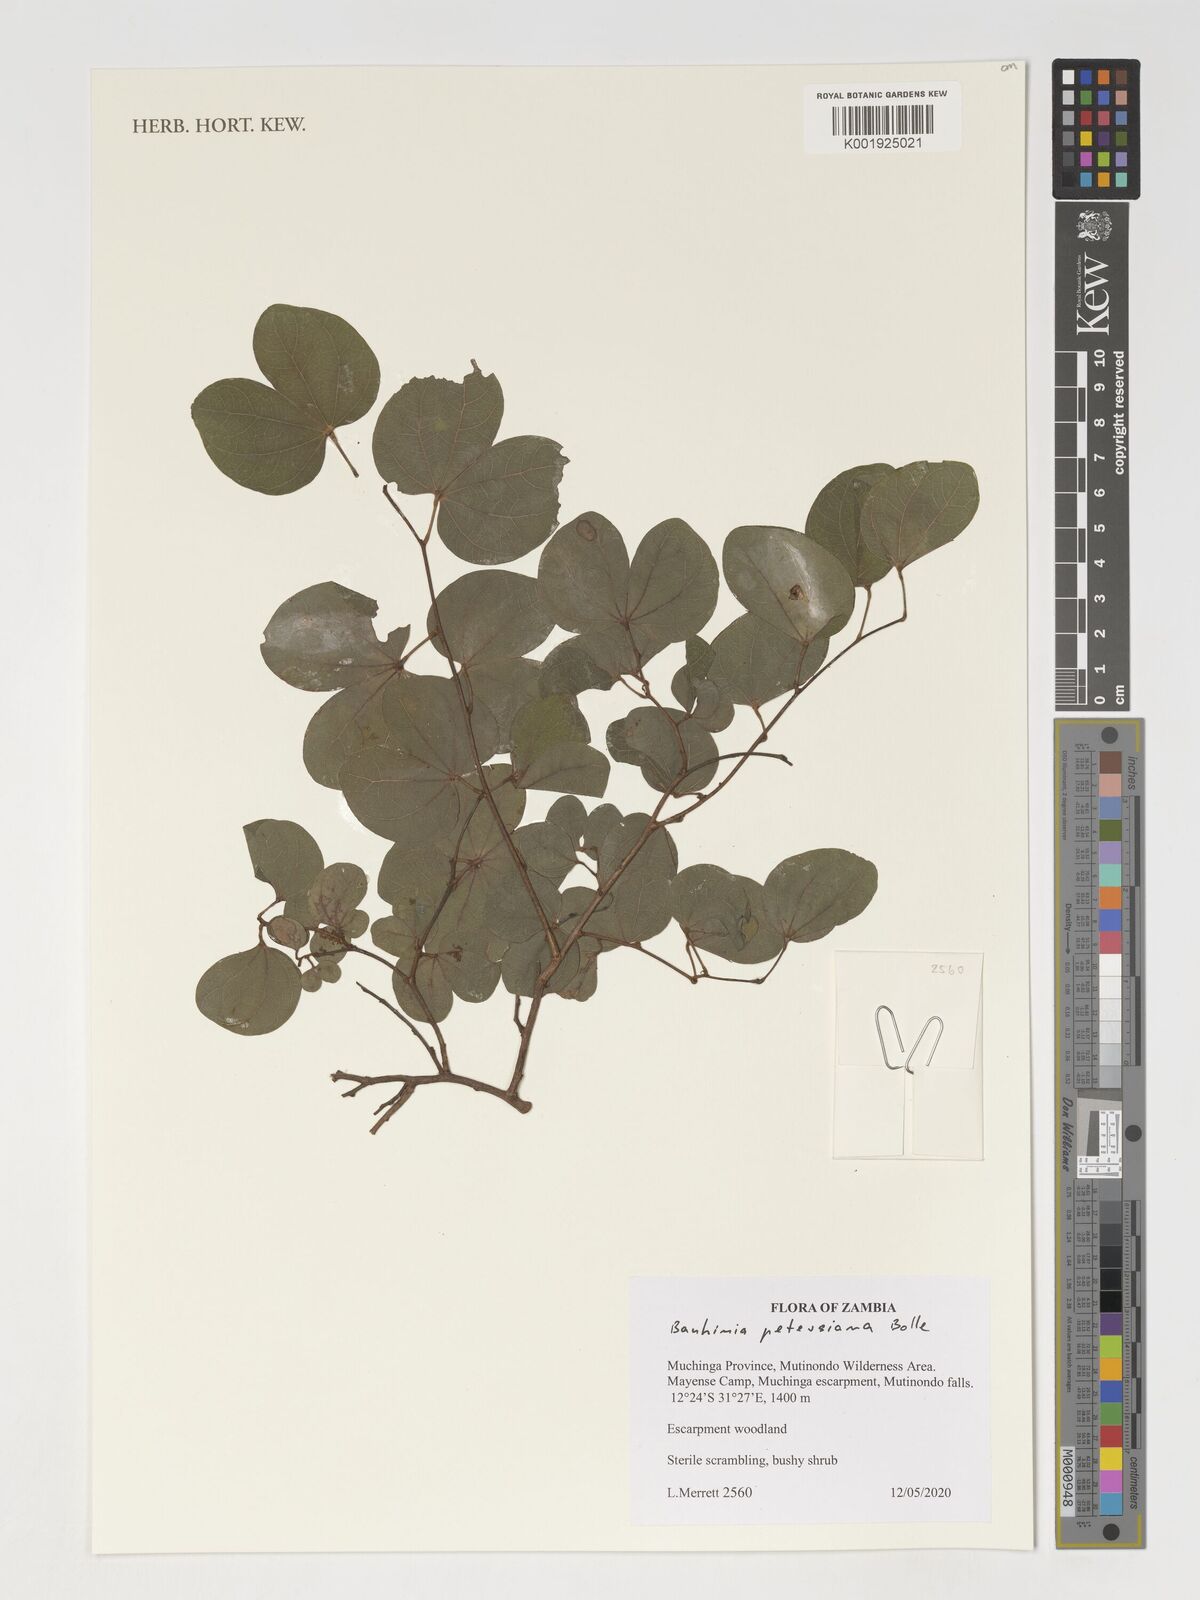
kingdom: Plantae
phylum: Tracheophyta
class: Magnoliopsida
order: Fabales
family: Fabaceae
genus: Bauhinia
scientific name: Bauhinia petersiana
